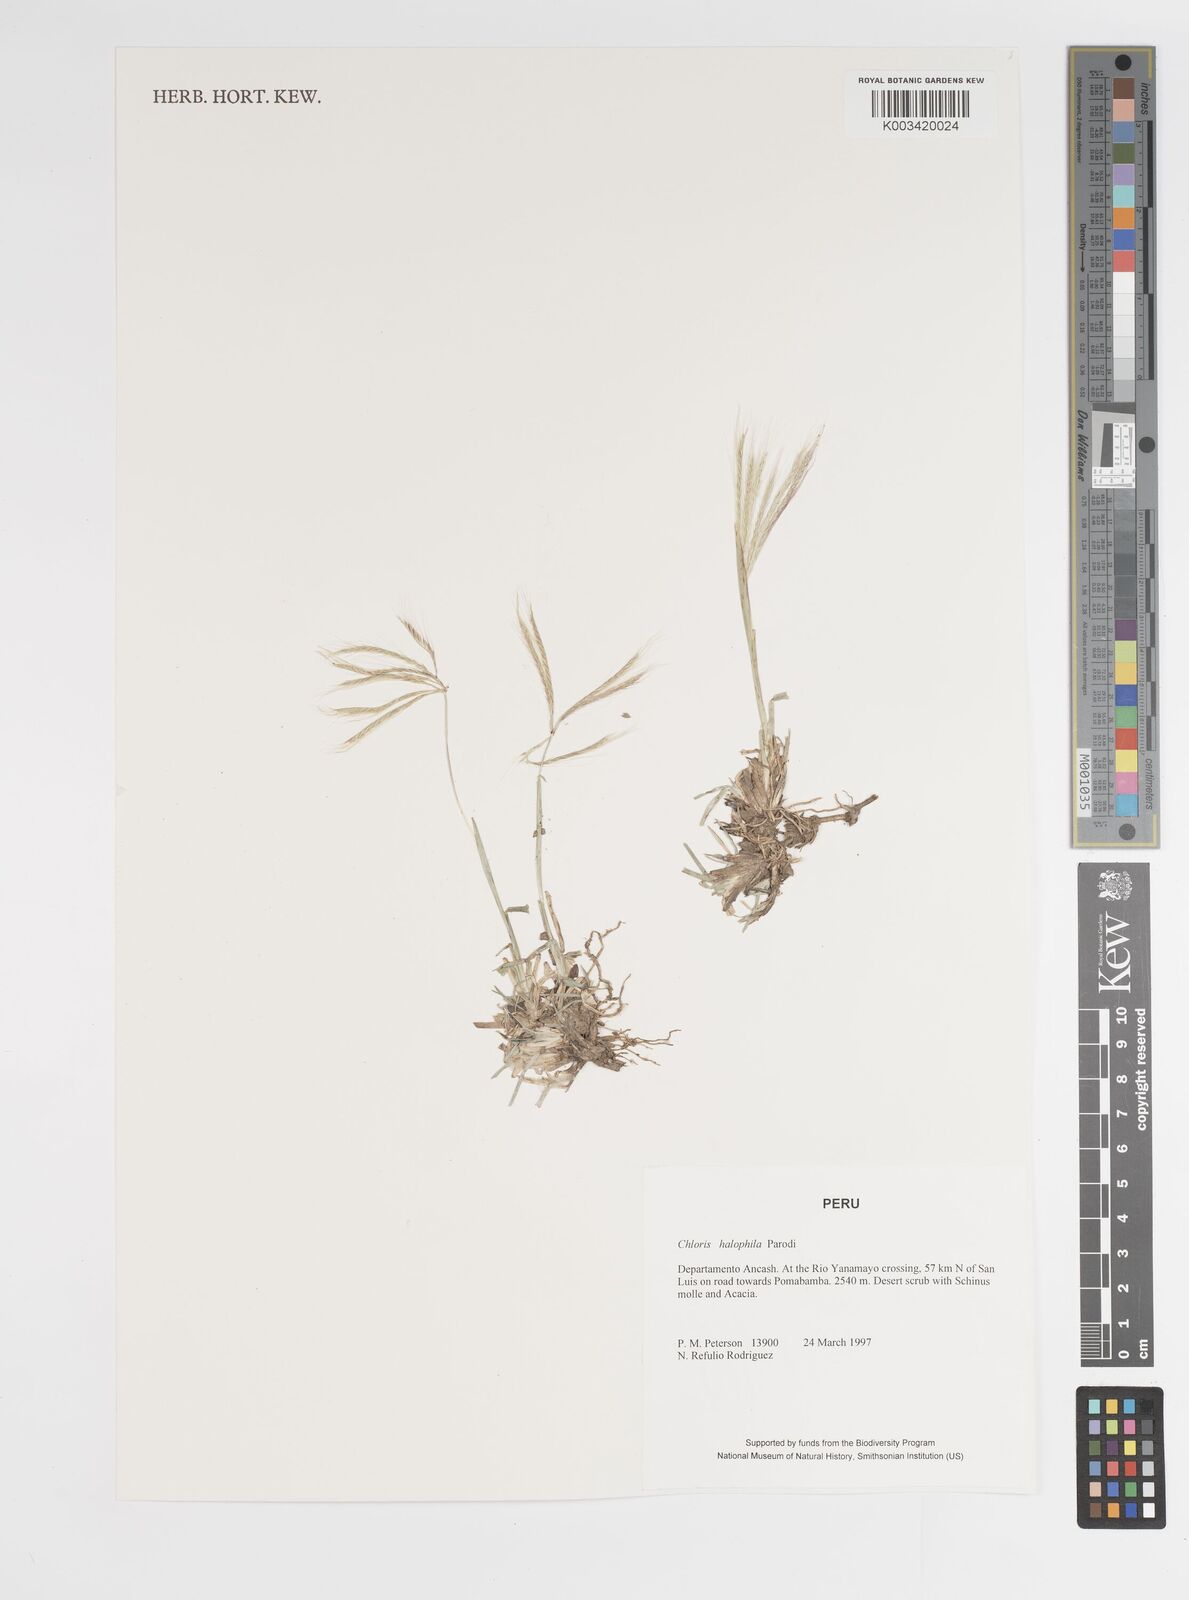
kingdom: Plantae
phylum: Tracheophyta
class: Liliopsida
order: Poales
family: Poaceae
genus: Chloris
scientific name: Chloris halophila
